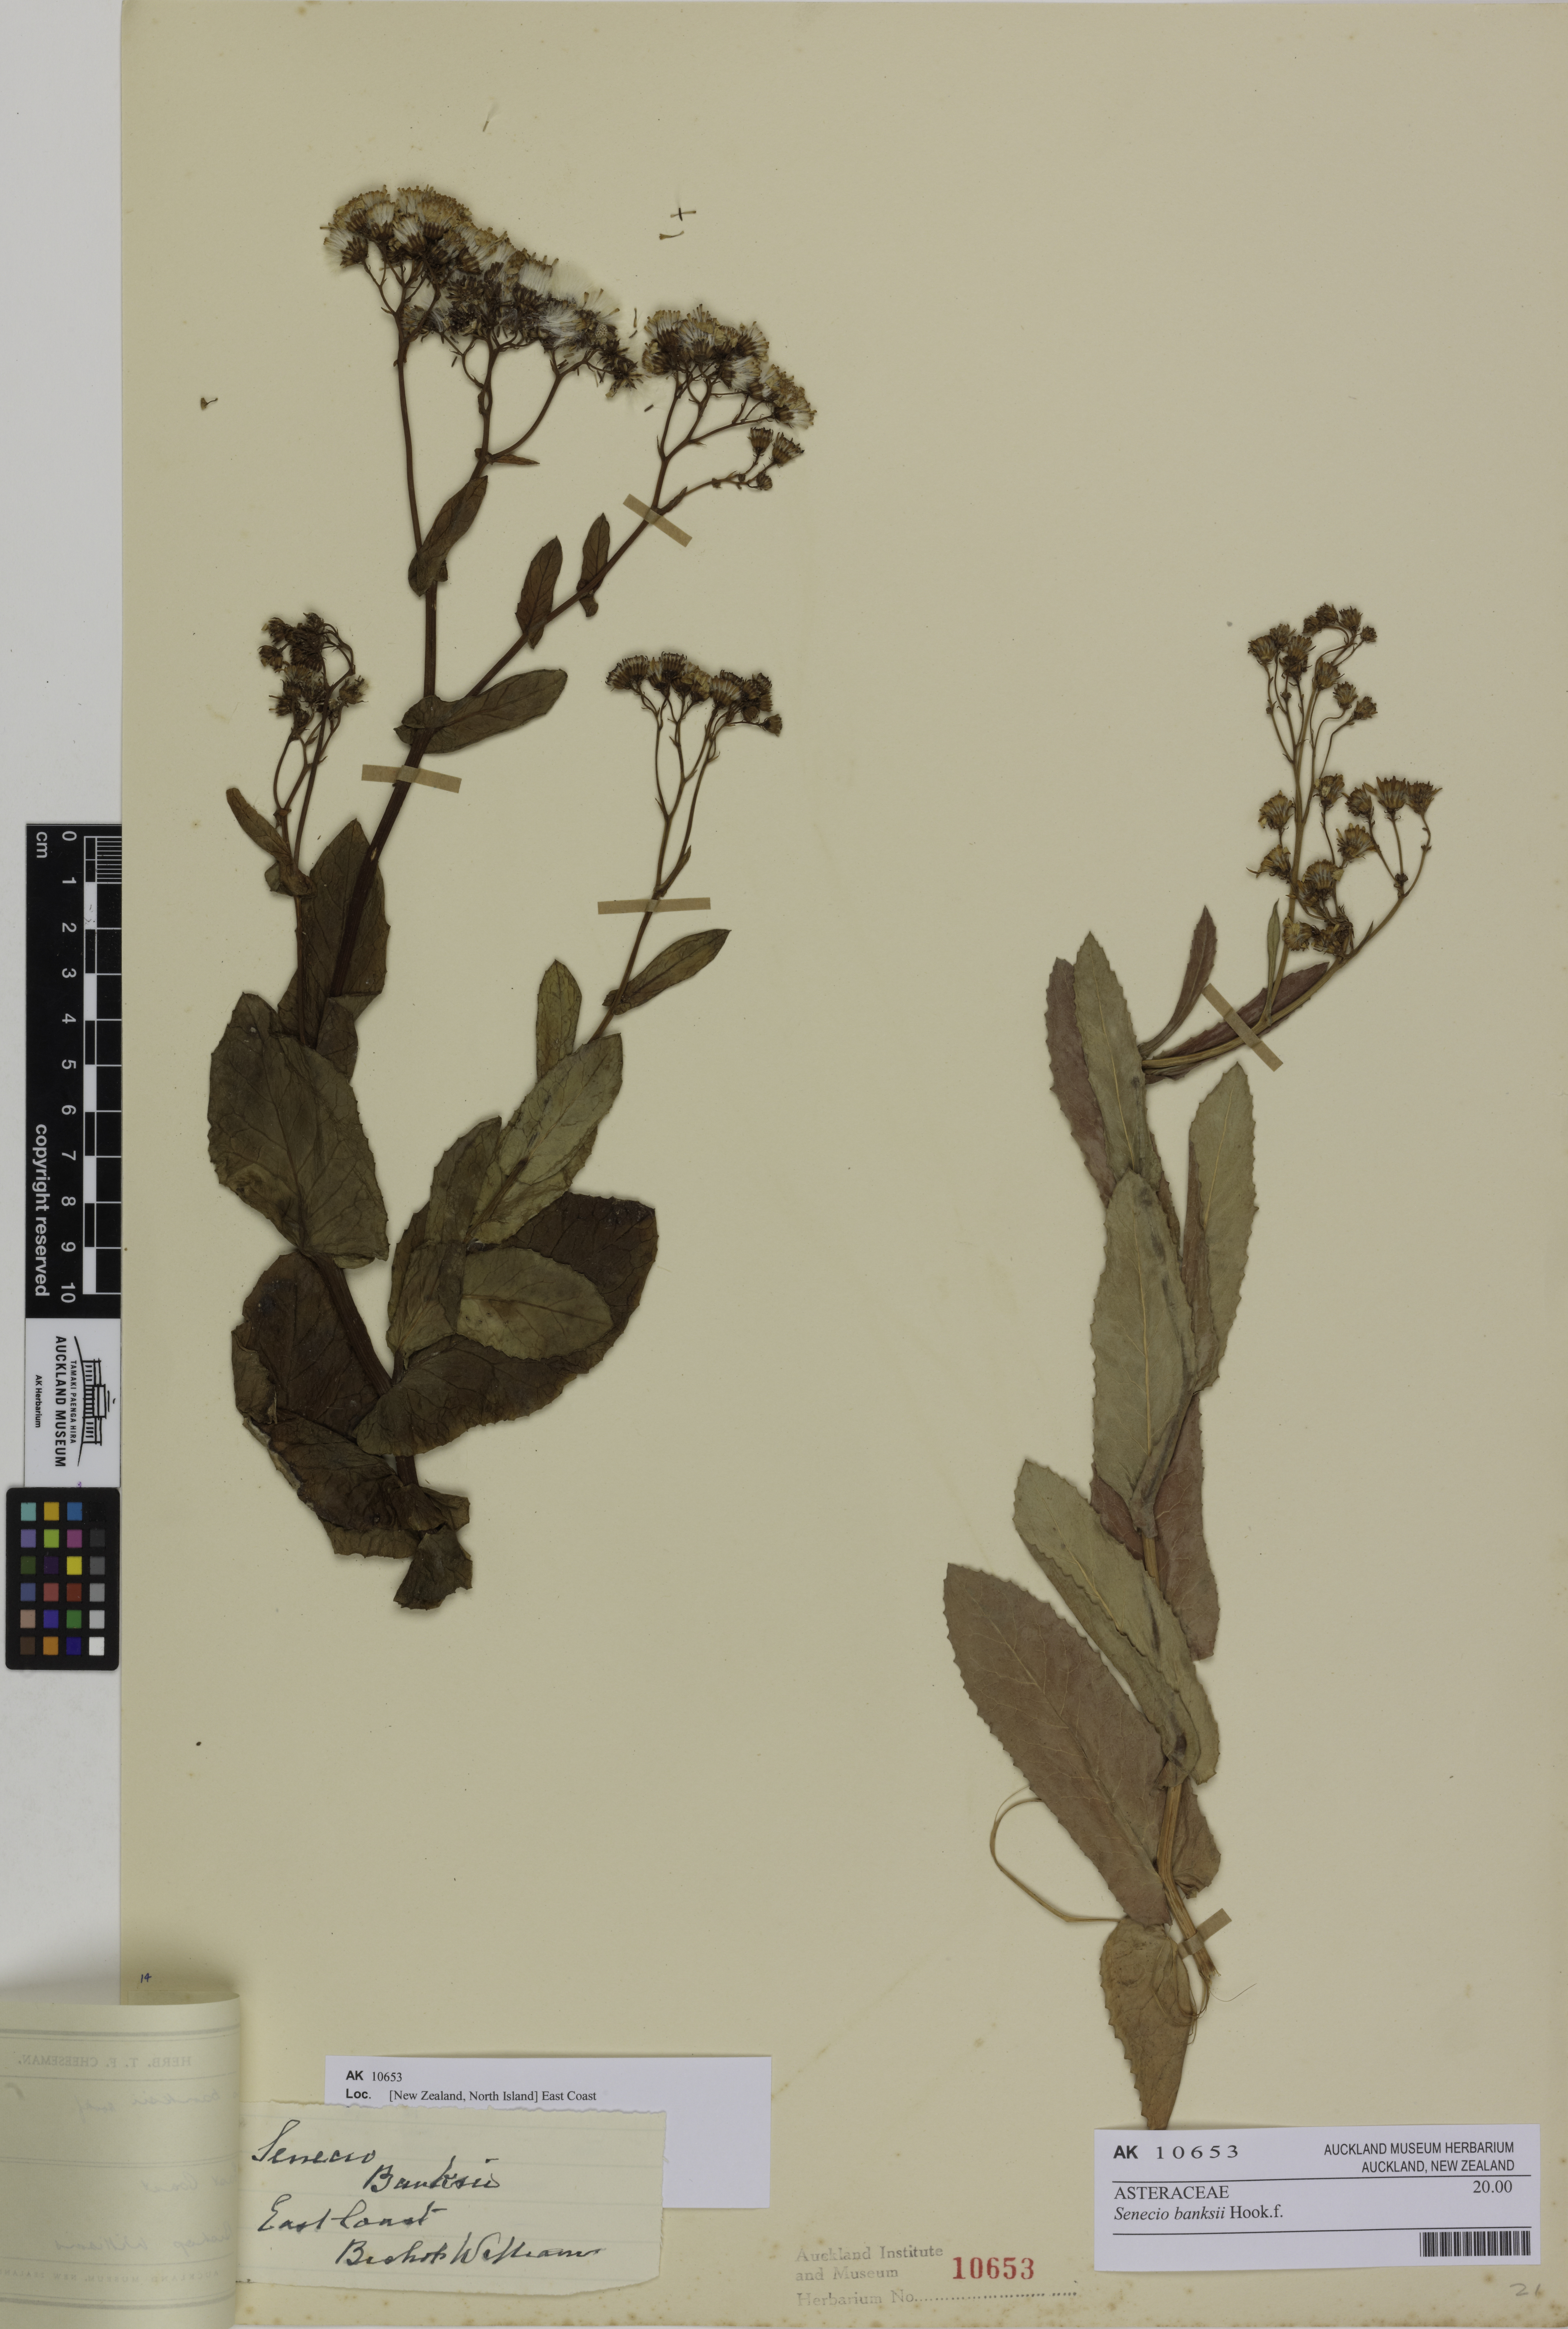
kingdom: Plantae
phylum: Tracheophyta
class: Magnoliopsida
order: Asterales
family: Asteraceae
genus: Senecio
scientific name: Senecio banksii
